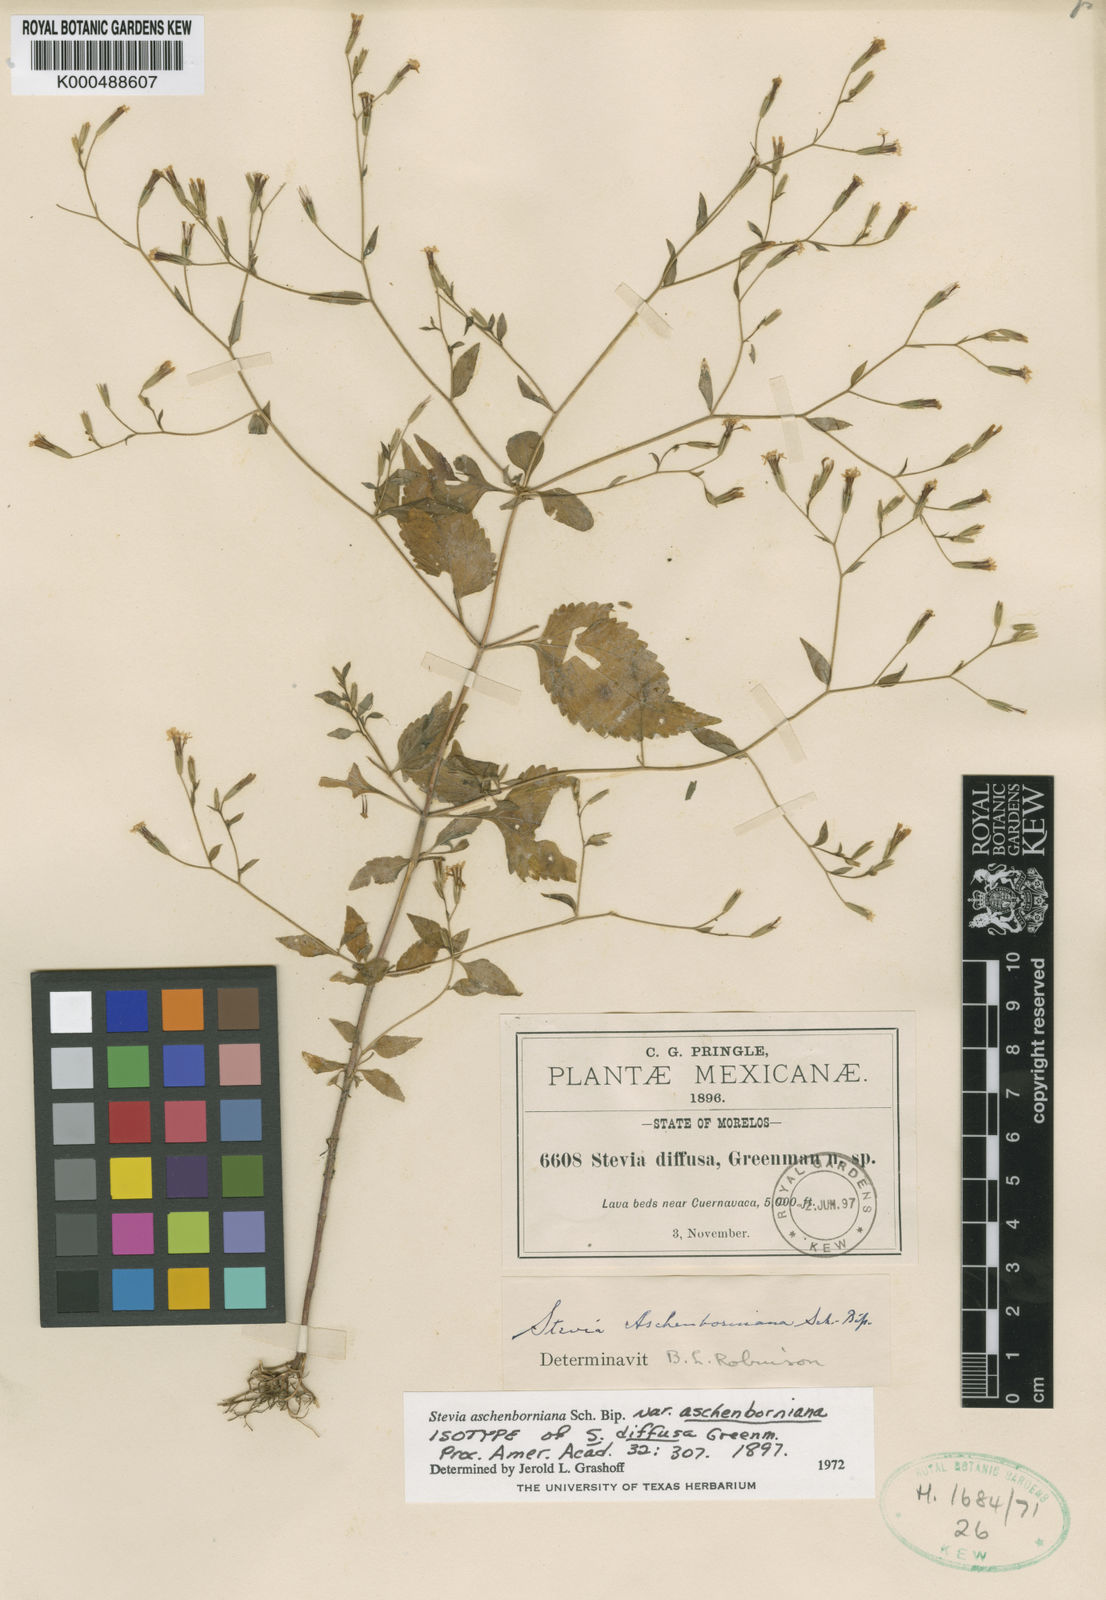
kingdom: Plantae
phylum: Tracheophyta
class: Magnoliopsida
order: Asterales
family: Asteraceae
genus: Stevia
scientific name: Stevia aschenborniana
